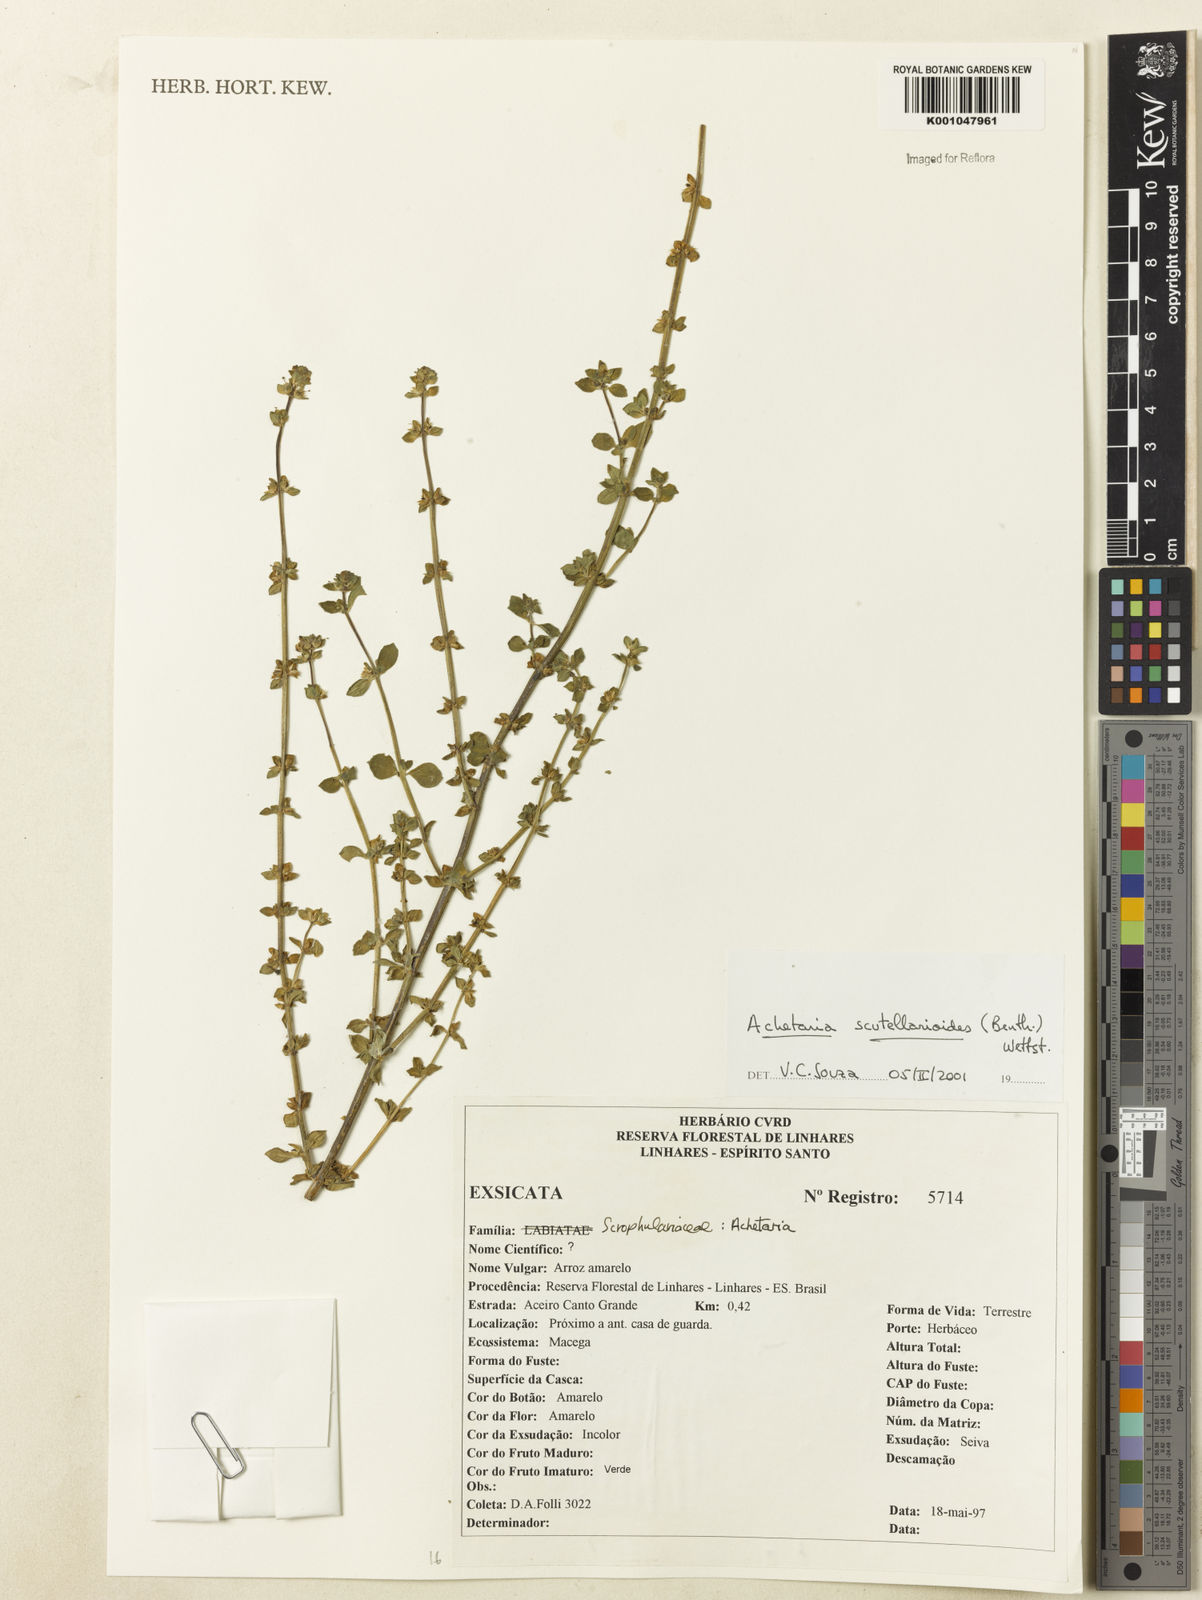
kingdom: Plantae
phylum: Tracheophyta
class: Magnoliopsida
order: Lamiales
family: Plantaginaceae
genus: Matourea
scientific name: Matourea scutellarioides
